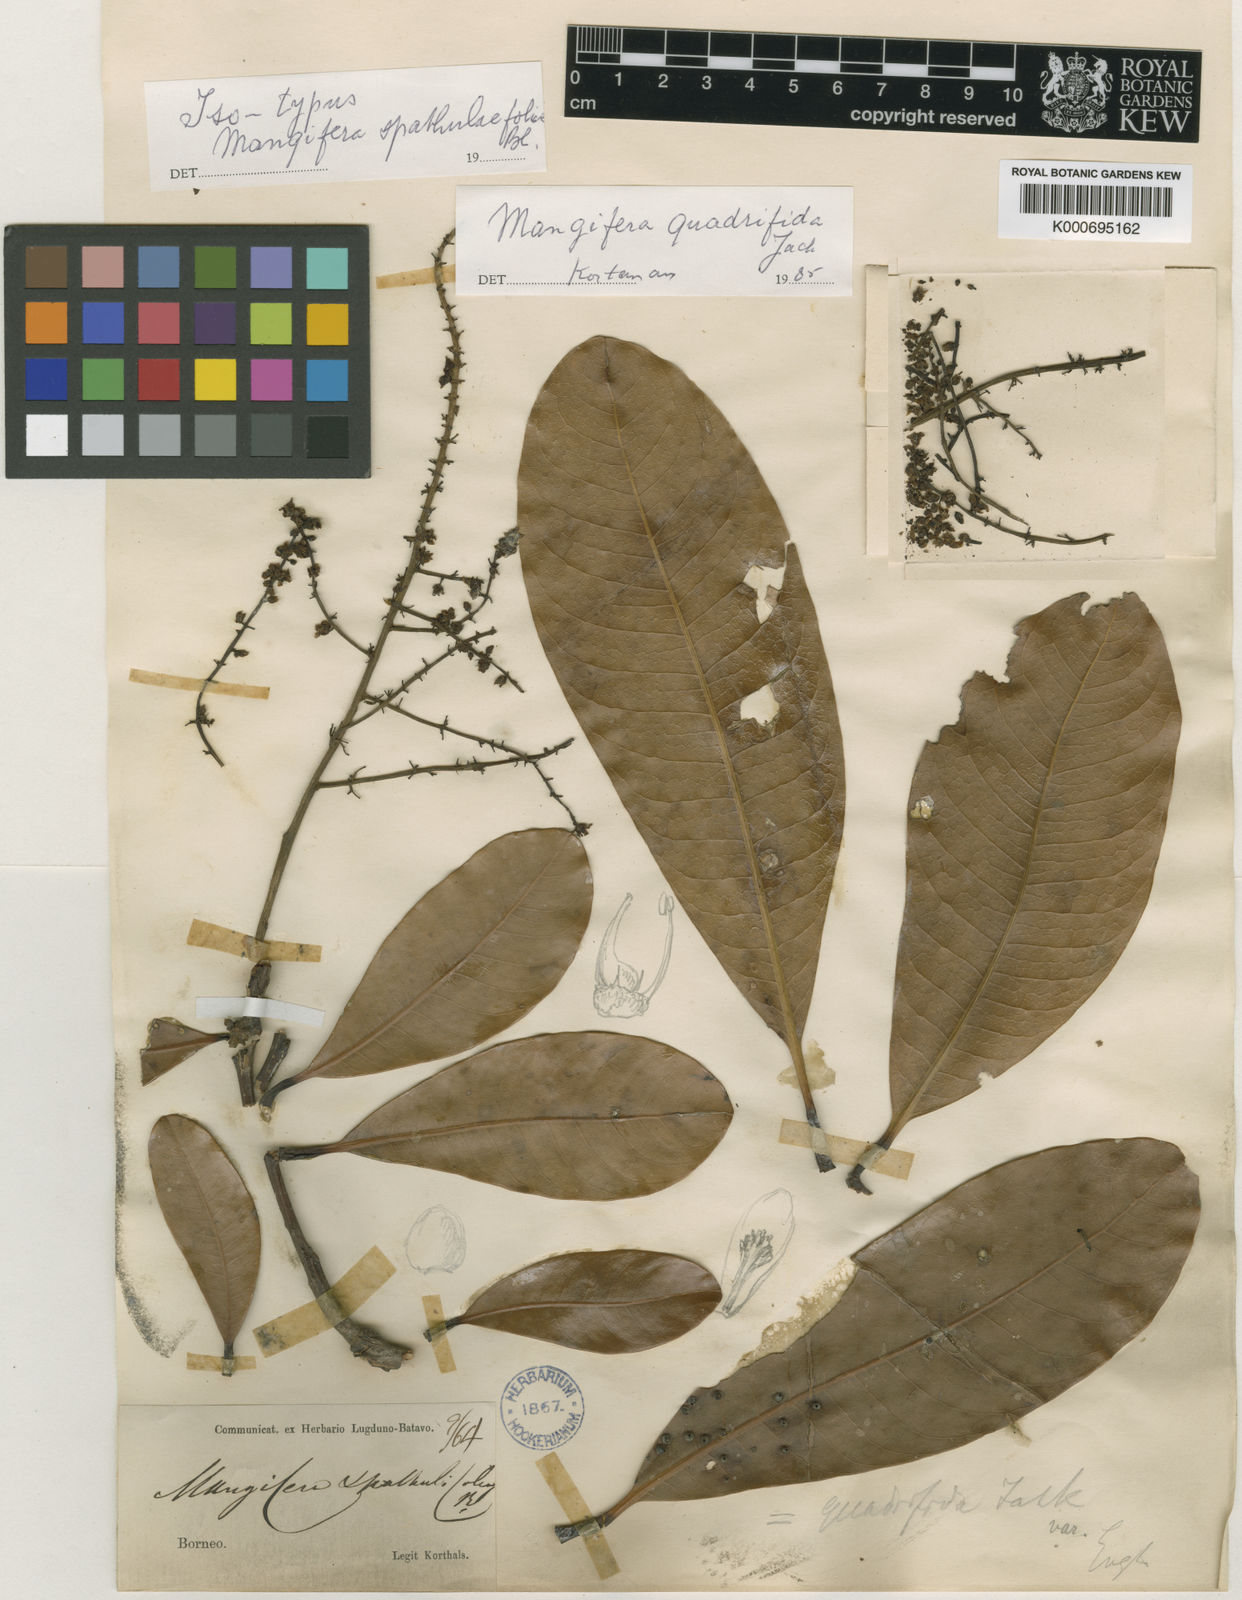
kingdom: Plantae
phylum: Tracheophyta
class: Magnoliopsida
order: Sapindales
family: Anacardiaceae
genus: Mangifera
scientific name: Mangifera quadrifida
